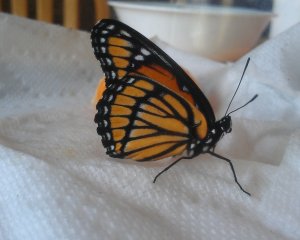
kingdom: Animalia
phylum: Arthropoda
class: Insecta
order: Lepidoptera
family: Nymphalidae
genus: Limenitis
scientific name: Limenitis archippus
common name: Viceroy
